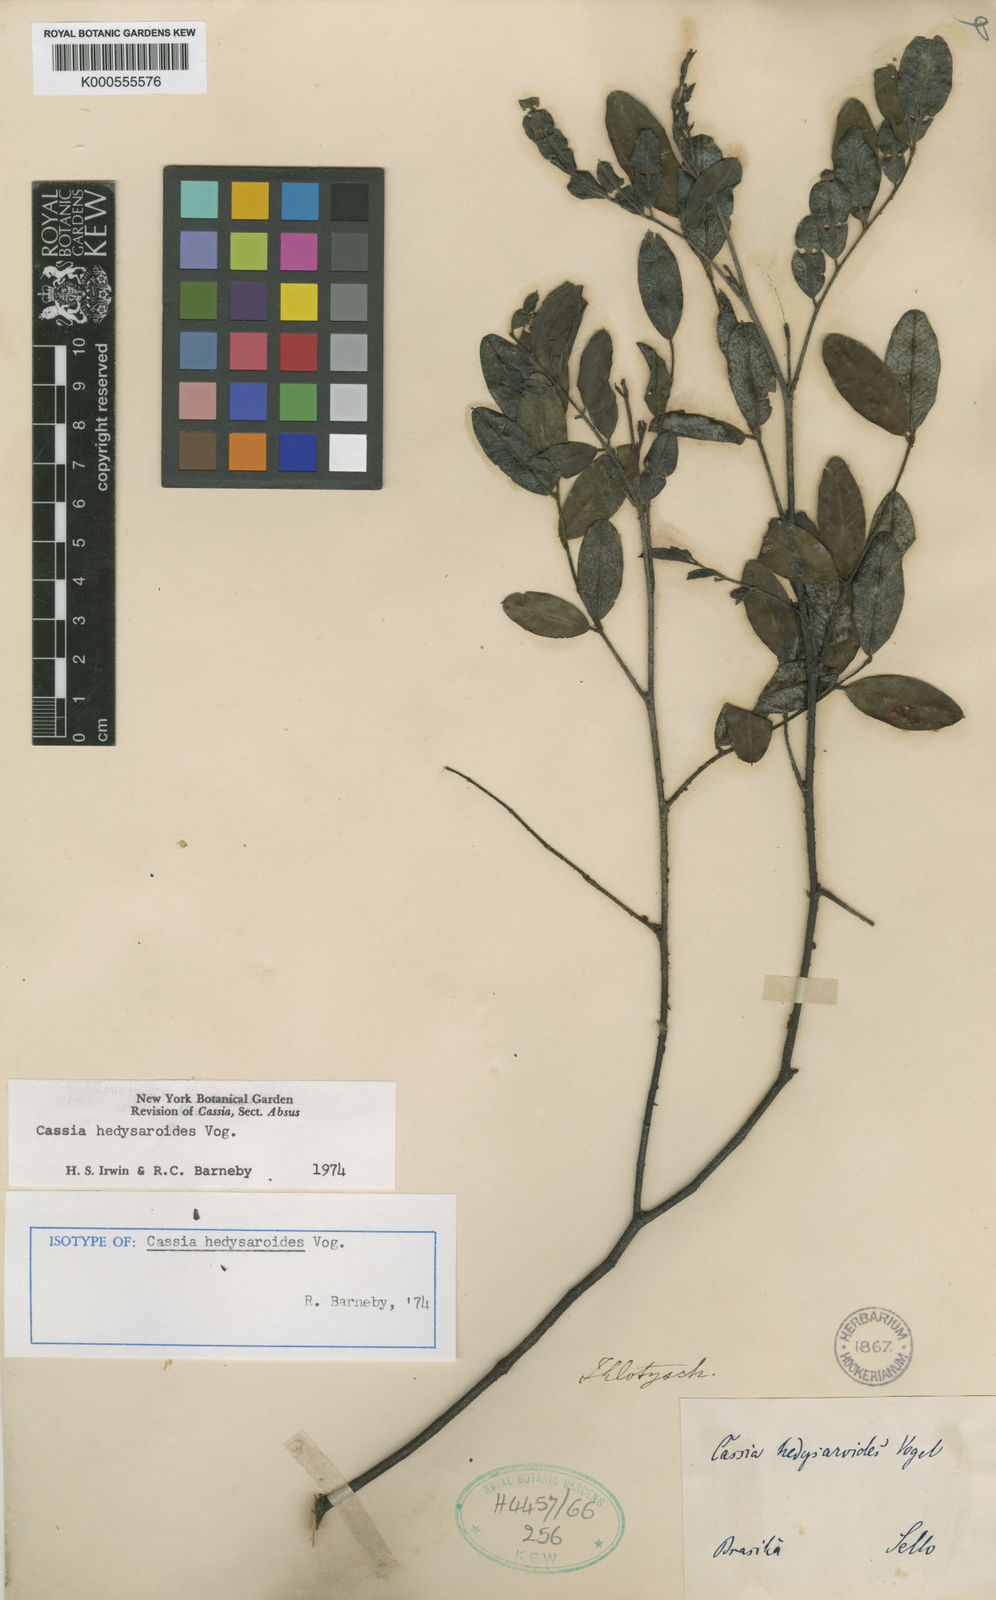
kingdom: Plantae
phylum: Tracheophyta
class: Magnoliopsida
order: Fabales
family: Fabaceae
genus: Chamaecrista
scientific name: Chamaecrista hedysaroides
